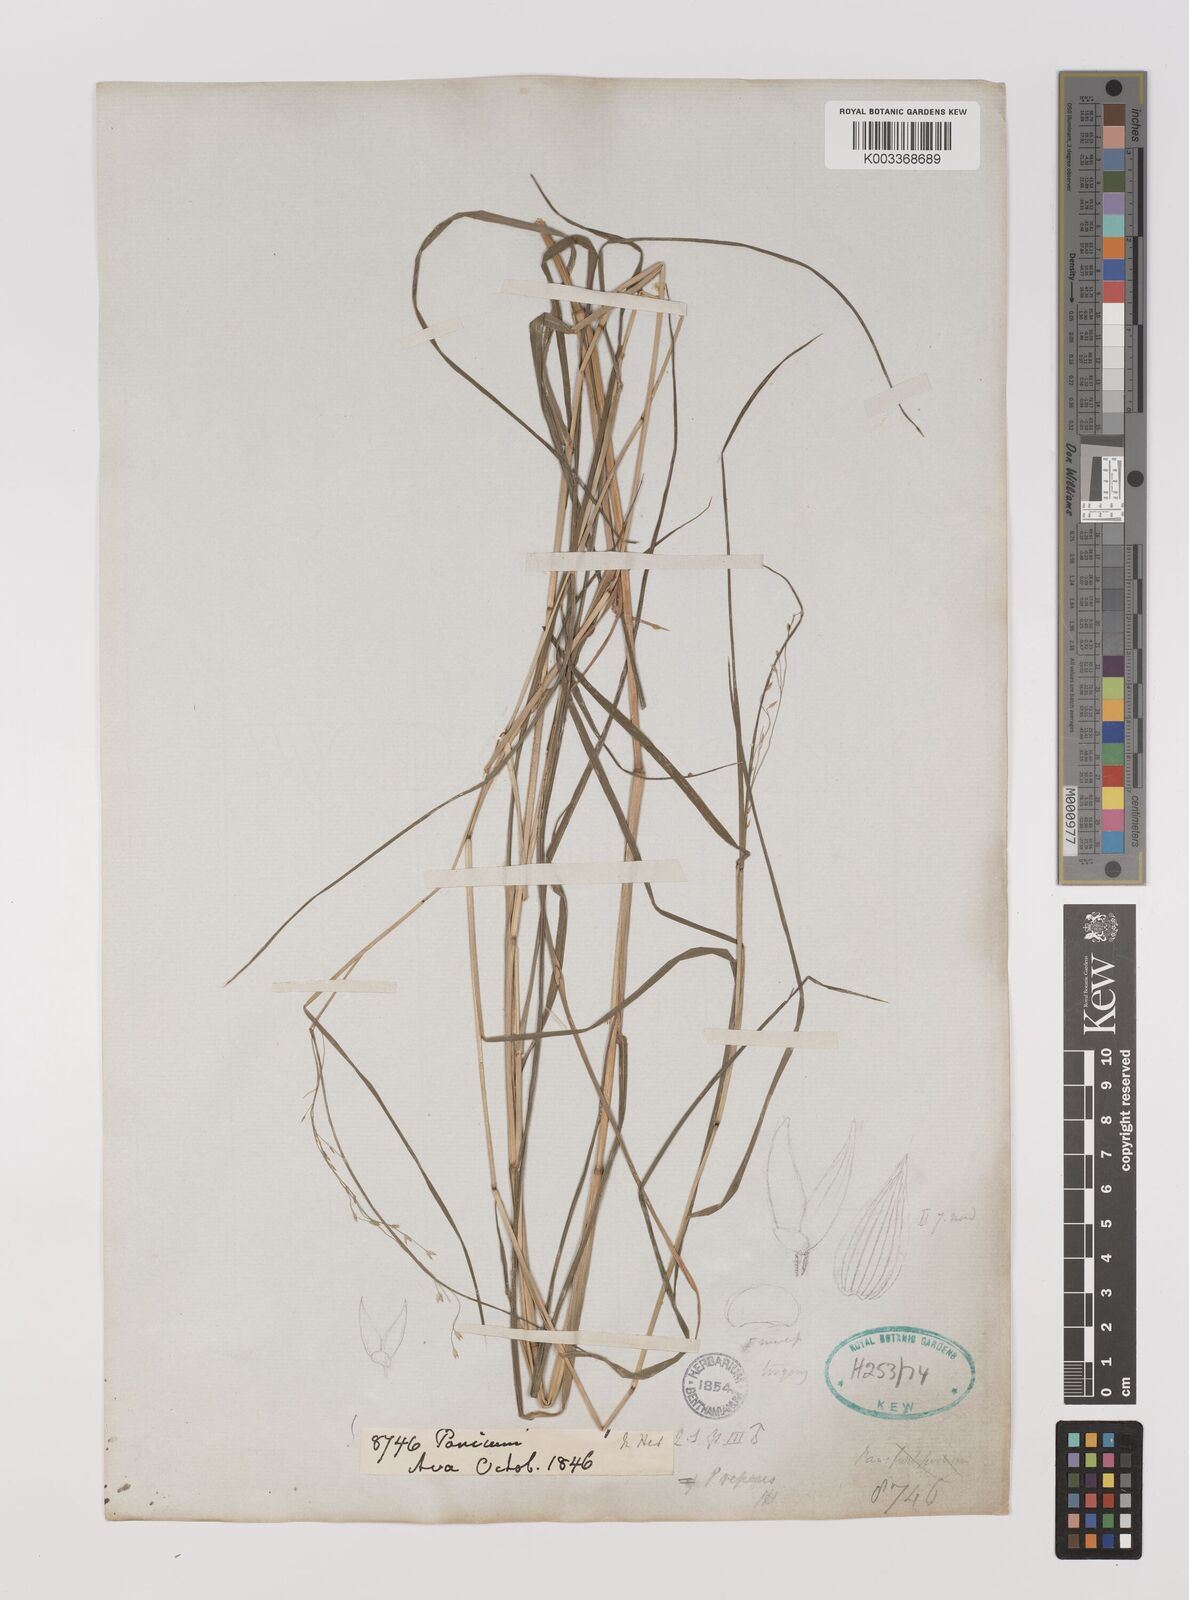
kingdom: Plantae
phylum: Tracheophyta
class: Liliopsida
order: Poales
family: Poaceae
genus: Panicum
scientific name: Panicum repens
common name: Torpedo grass
